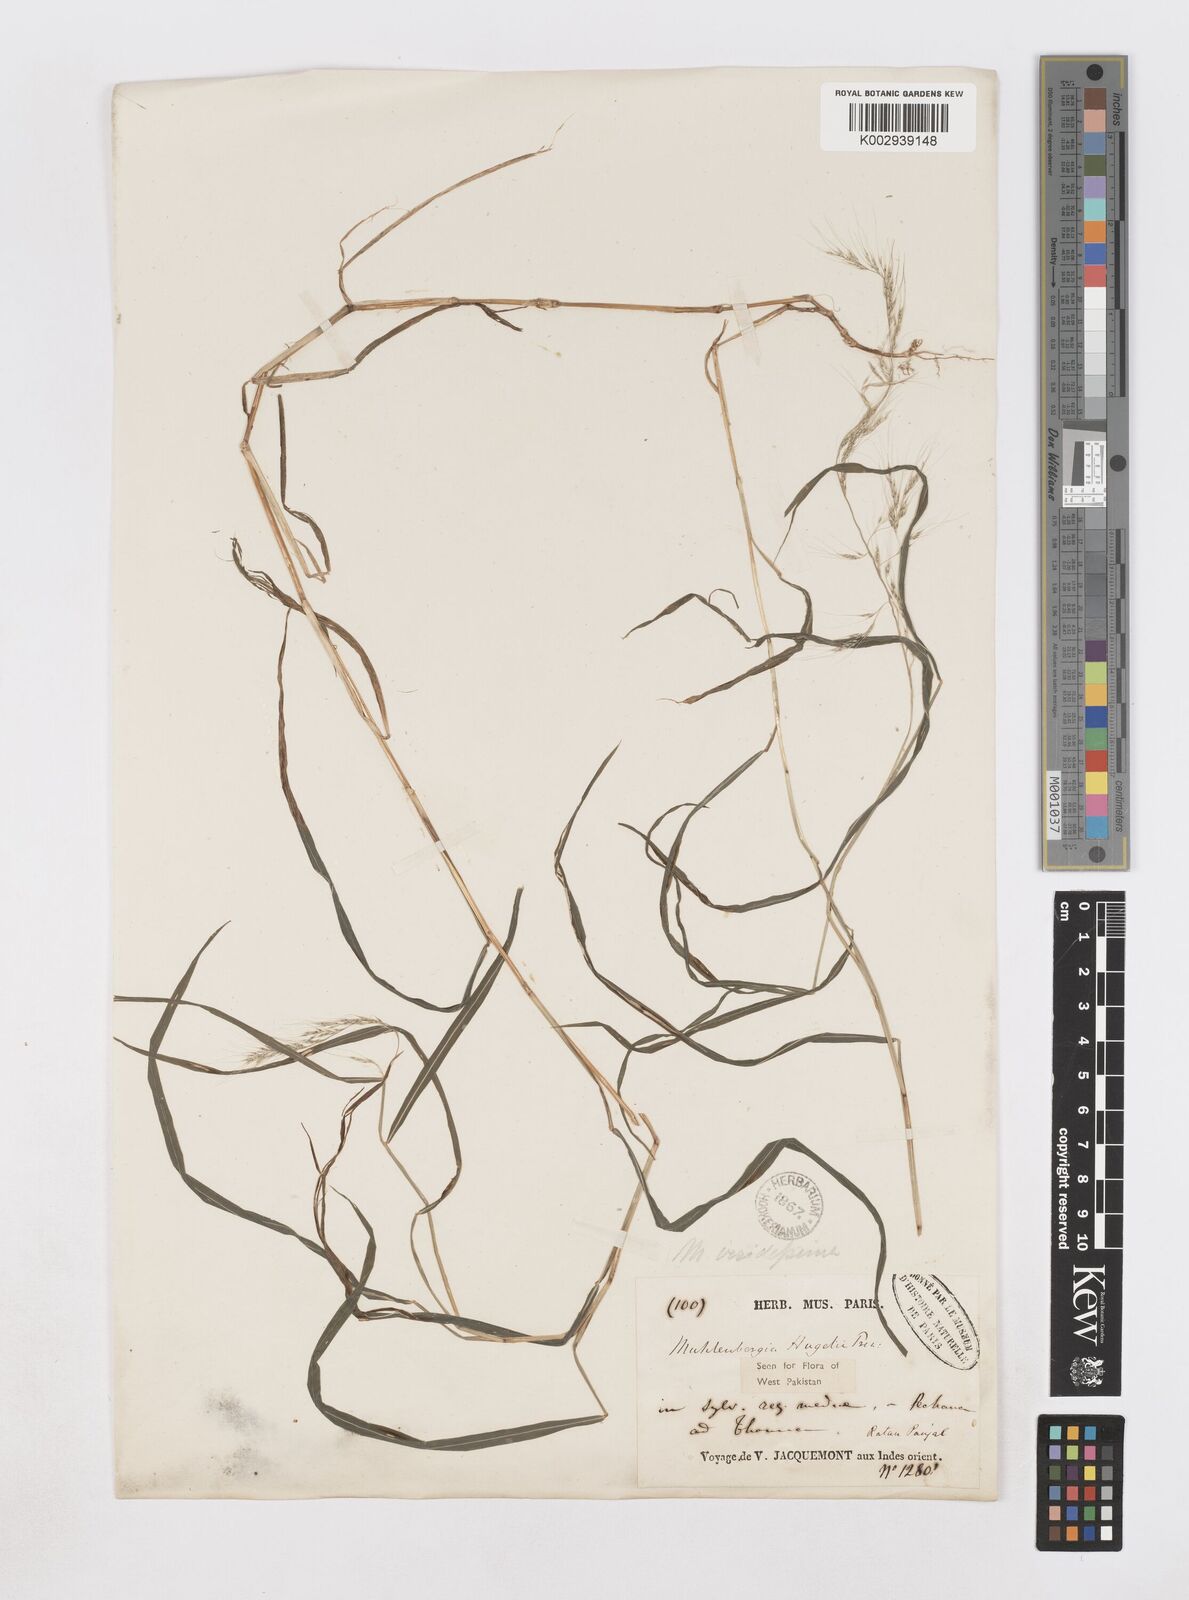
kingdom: Plantae
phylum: Tracheophyta
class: Liliopsida
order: Poales
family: Poaceae
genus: Muhlenbergia
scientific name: Muhlenbergia huegelii
